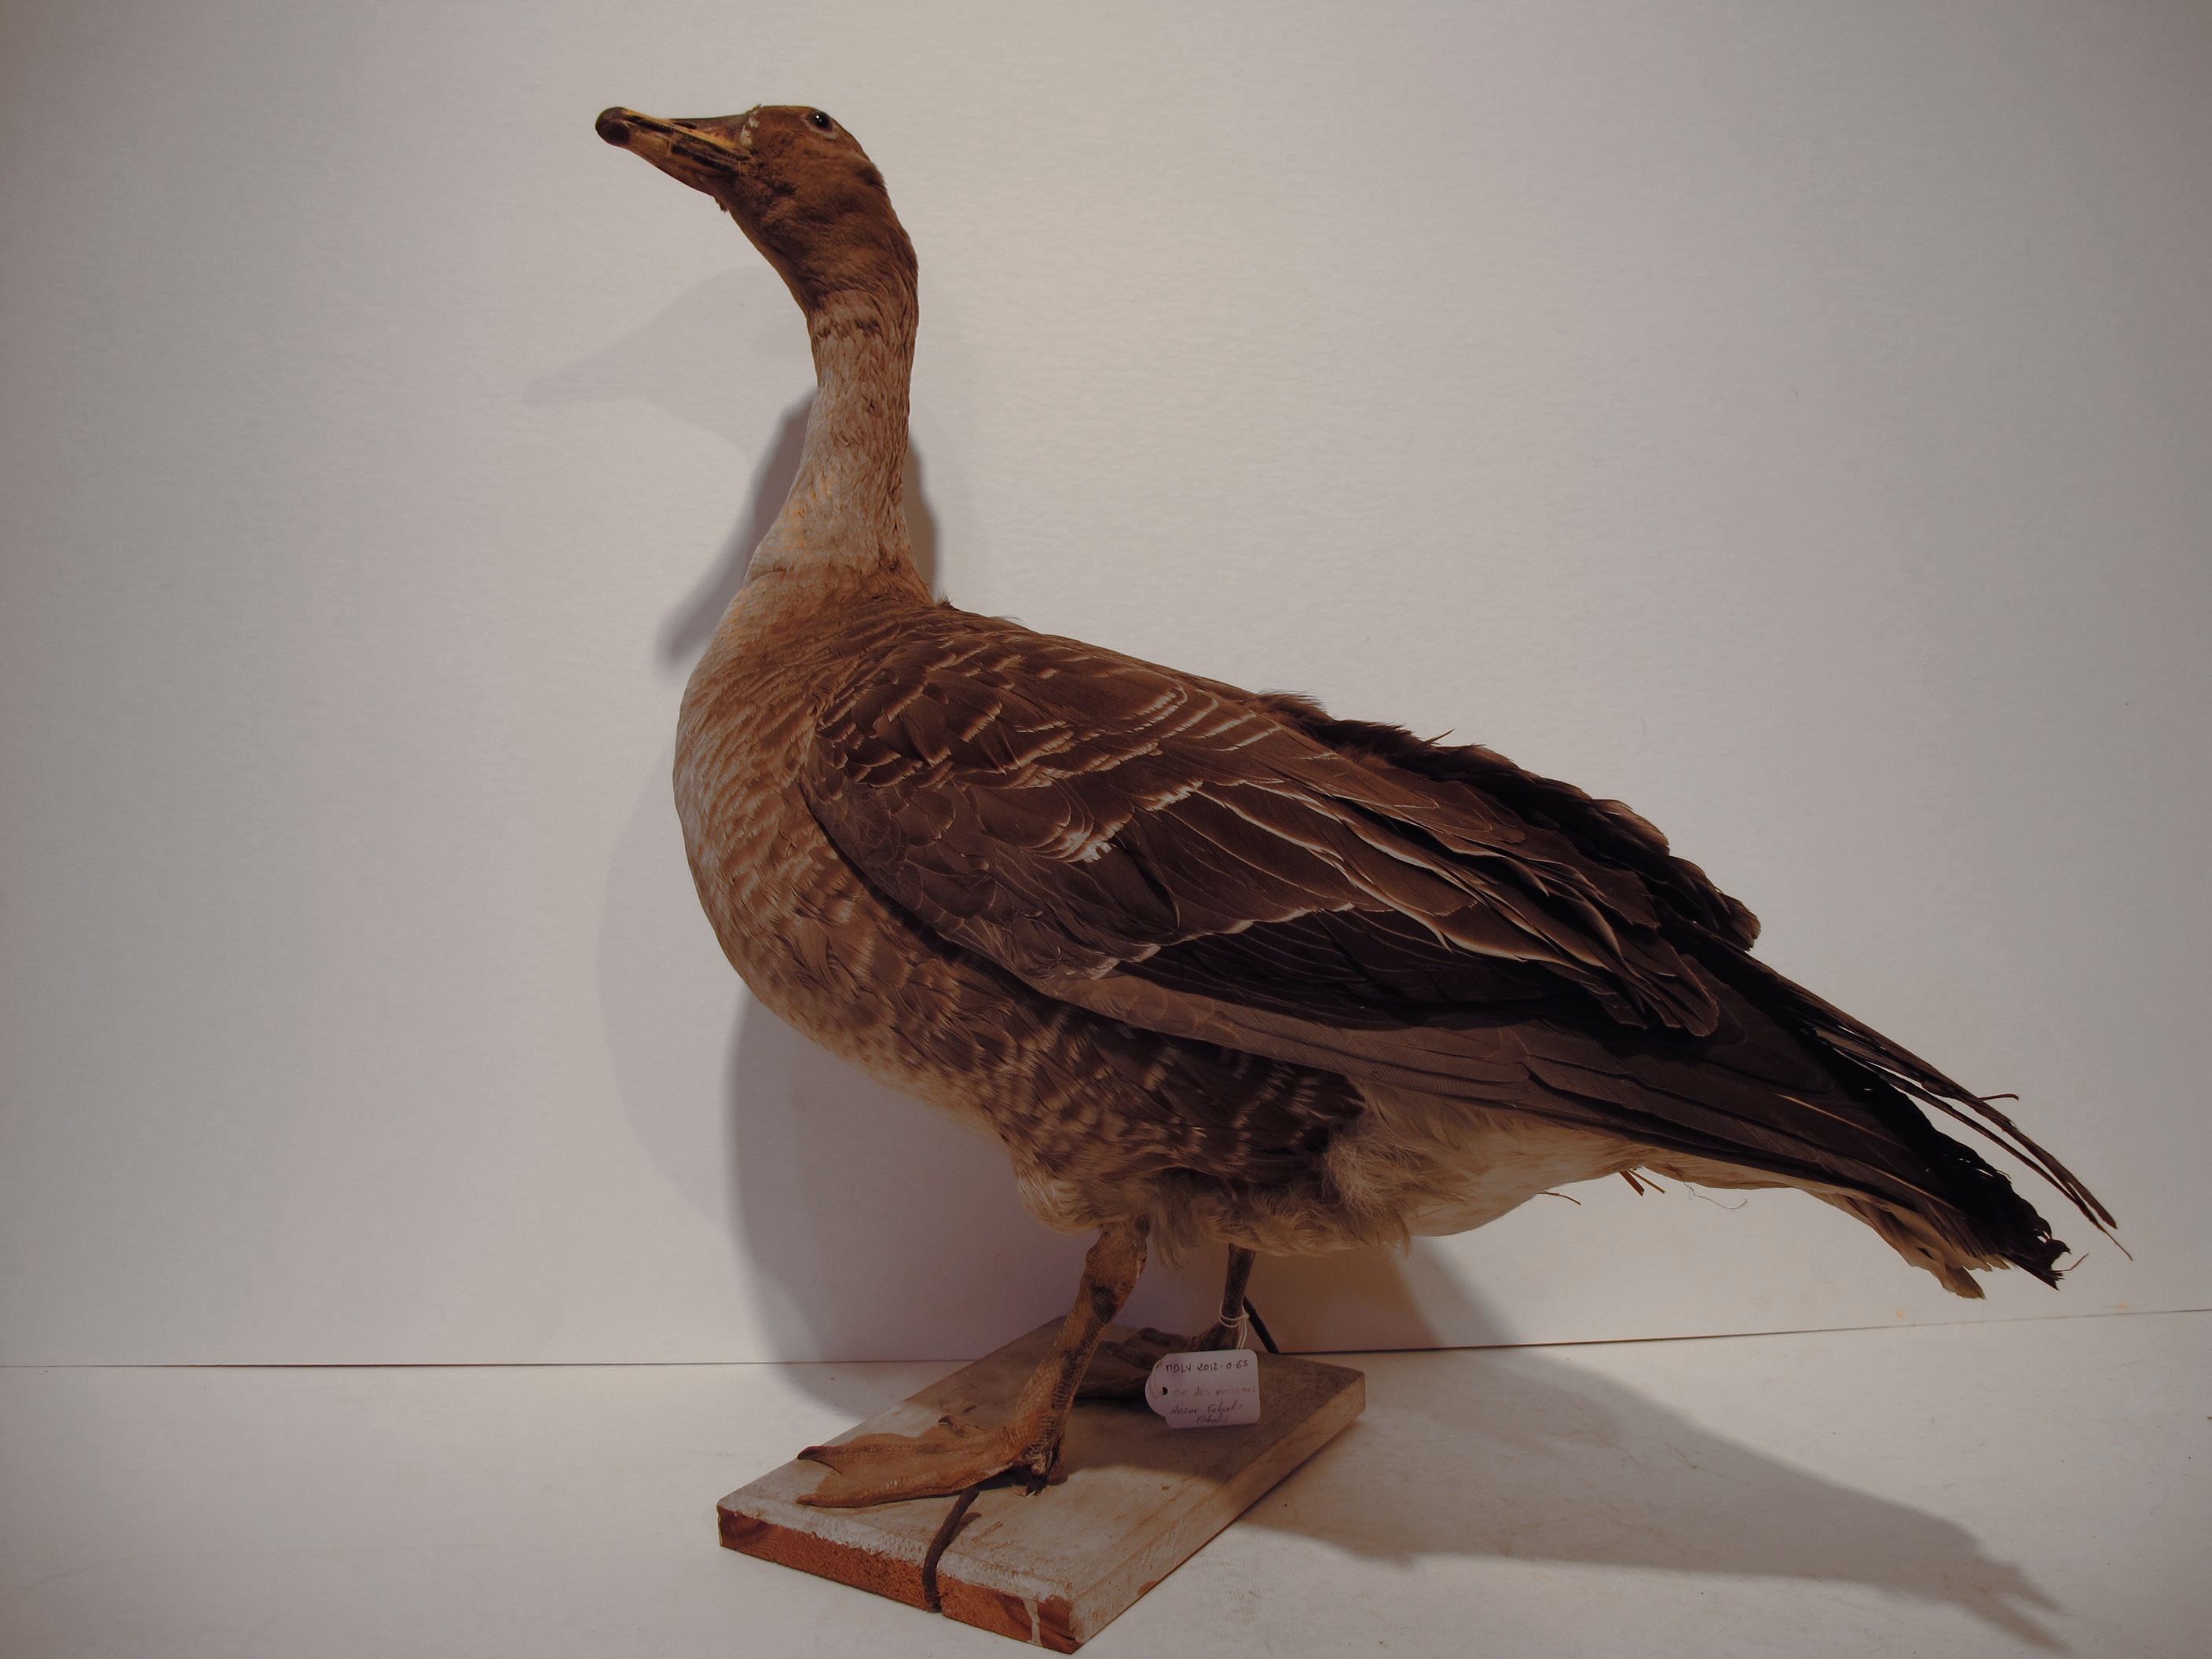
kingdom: Animalia
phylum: Chordata
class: Aves
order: Anseriformes
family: Anatidae
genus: Anser
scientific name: Anser fabalis
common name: Bean Goose
